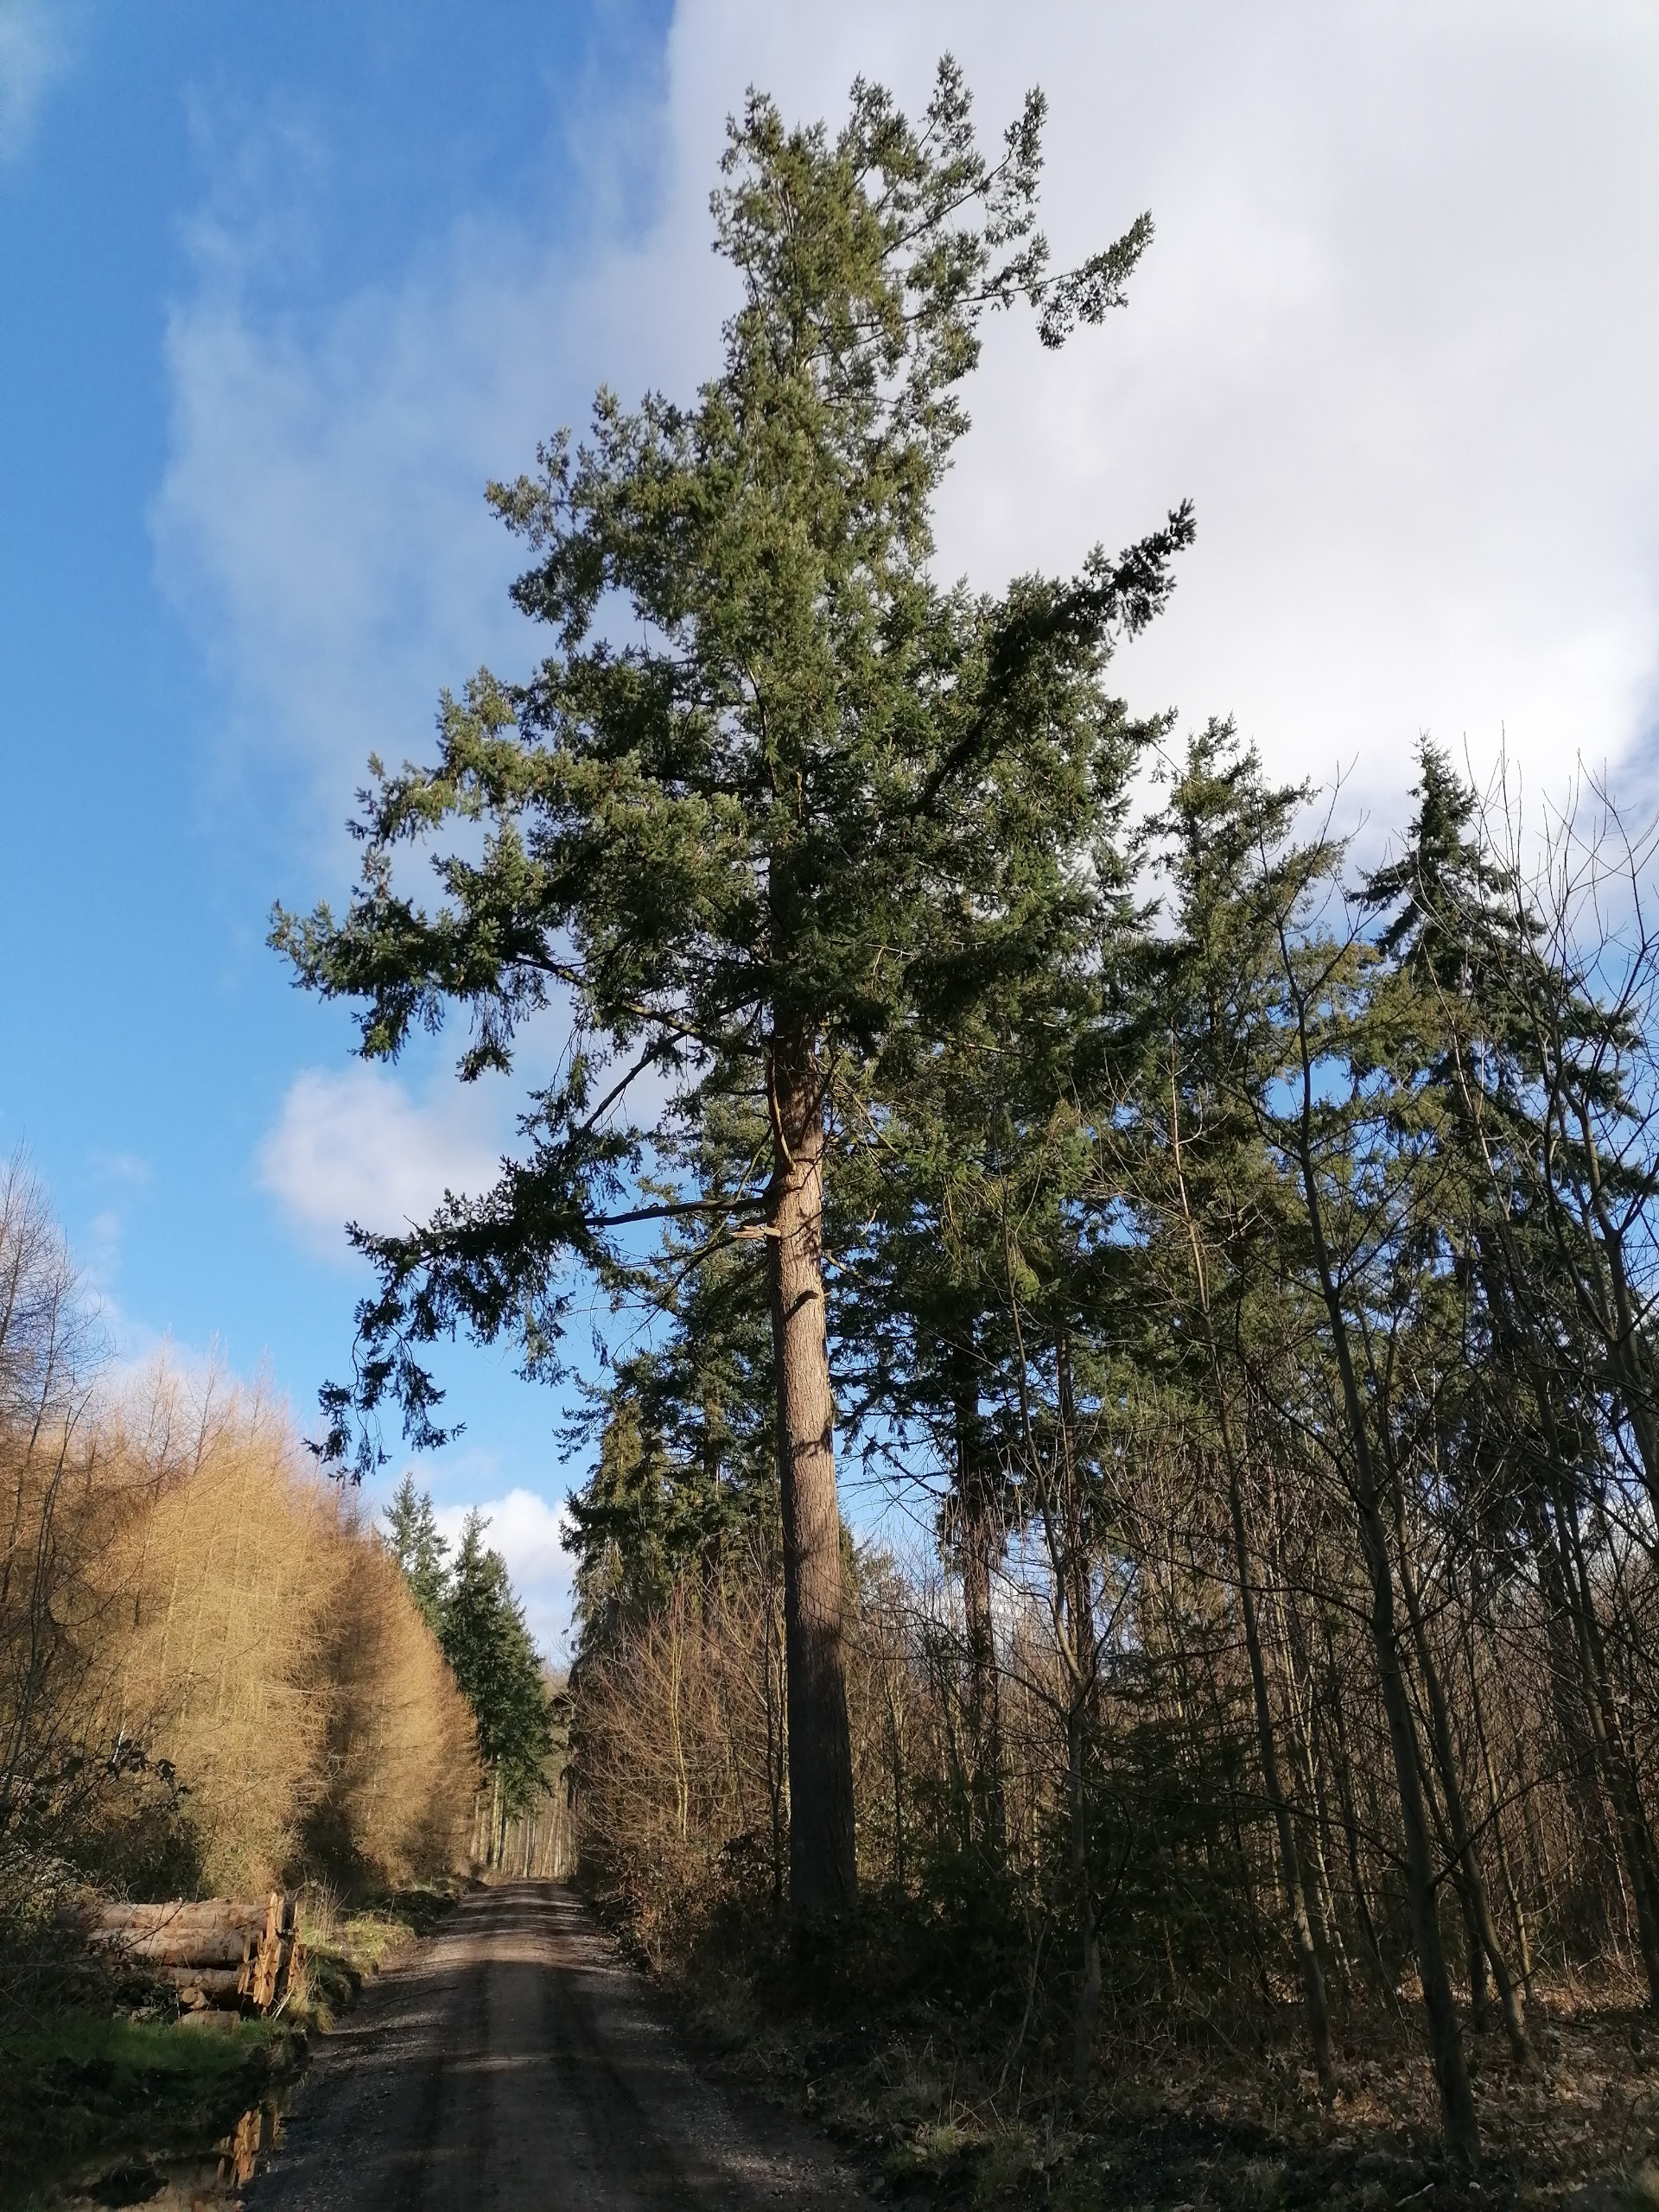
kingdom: Plantae
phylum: Tracheophyta
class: Pinopsida
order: Pinales
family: Pinaceae
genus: Pseudotsuga
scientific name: Pseudotsuga menziesii
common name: Grøn douglasgran
